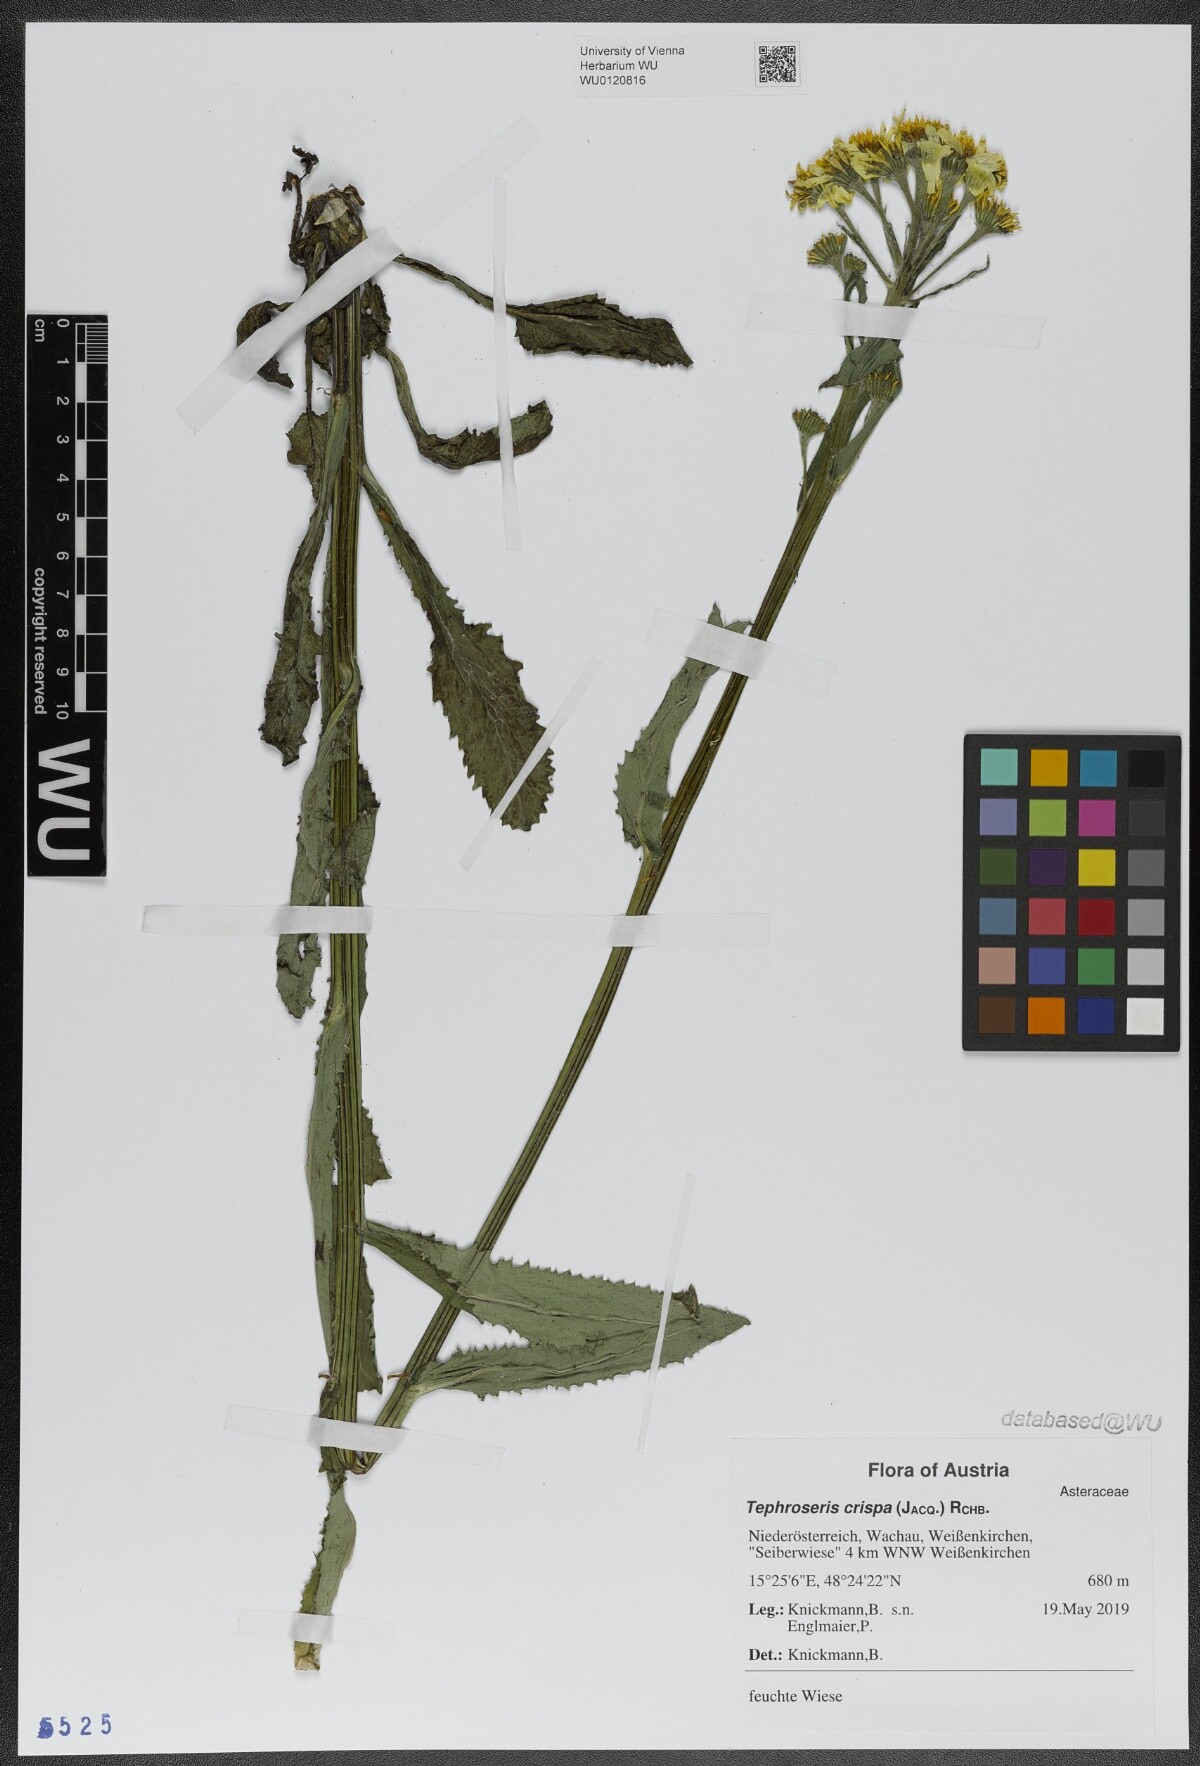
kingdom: Plantae
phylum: Tracheophyta
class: Magnoliopsida
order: Asterales
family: Asteraceae
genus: Tephroseris
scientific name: Tephroseris crispa
